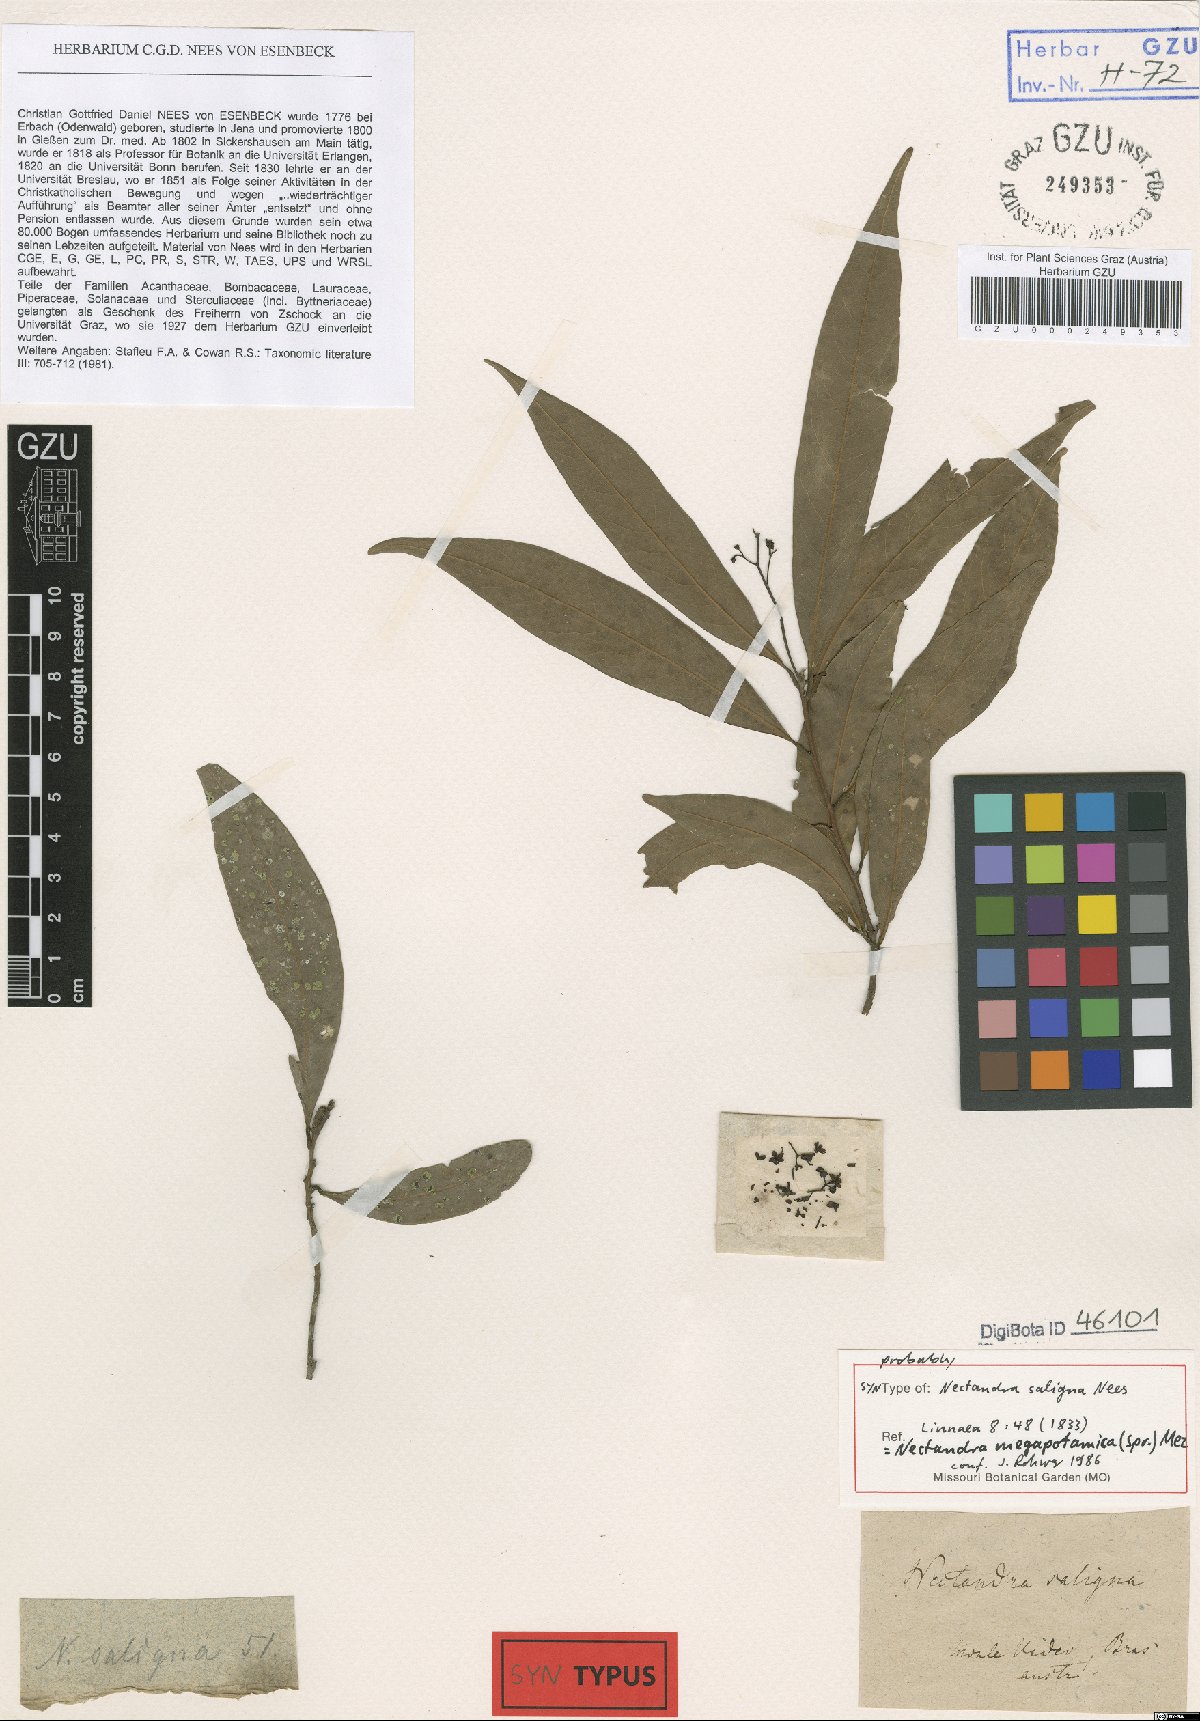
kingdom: Plantae
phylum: Tracheophyta
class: Magnoliopsida
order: Laurales
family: Lauraceae
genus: Nectandra
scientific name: Nectandra megapotamica
